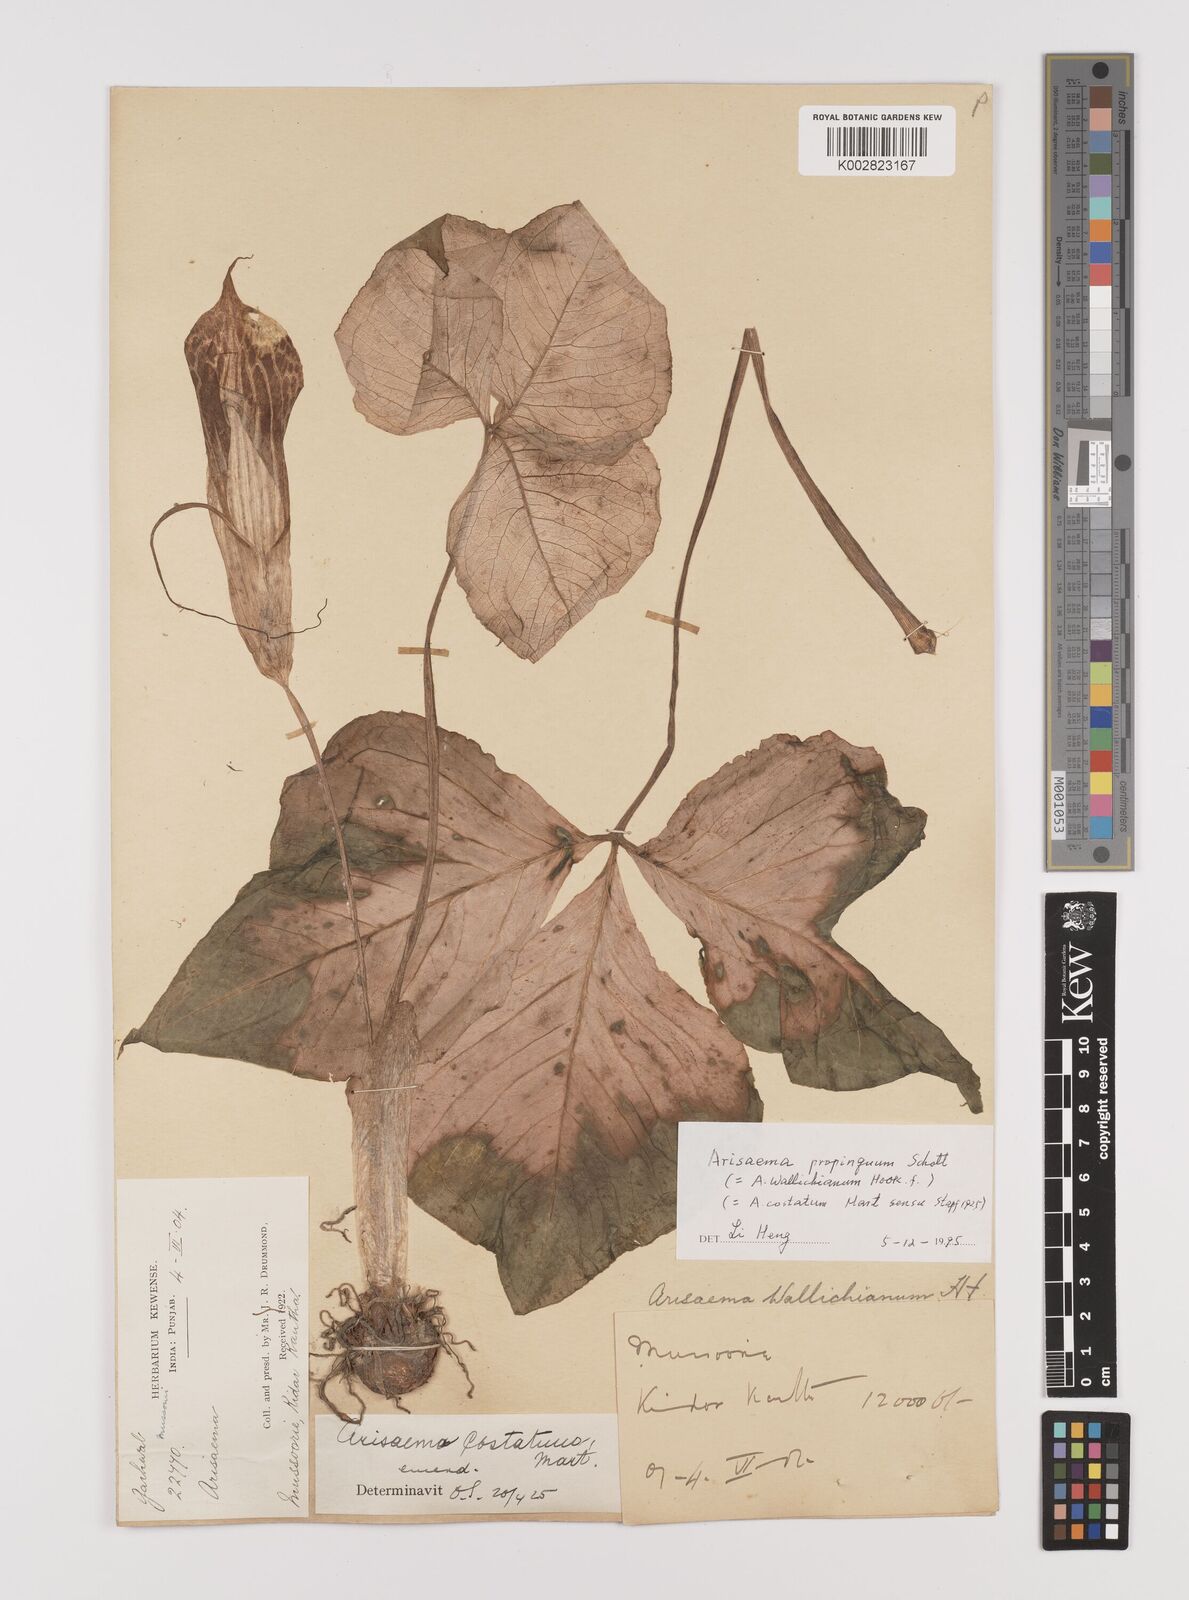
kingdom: Plantae
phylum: Tracheophyta
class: Liliopsida
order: Alismatales
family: Araceae
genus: Arisaema
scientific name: Arisaema propinquum
